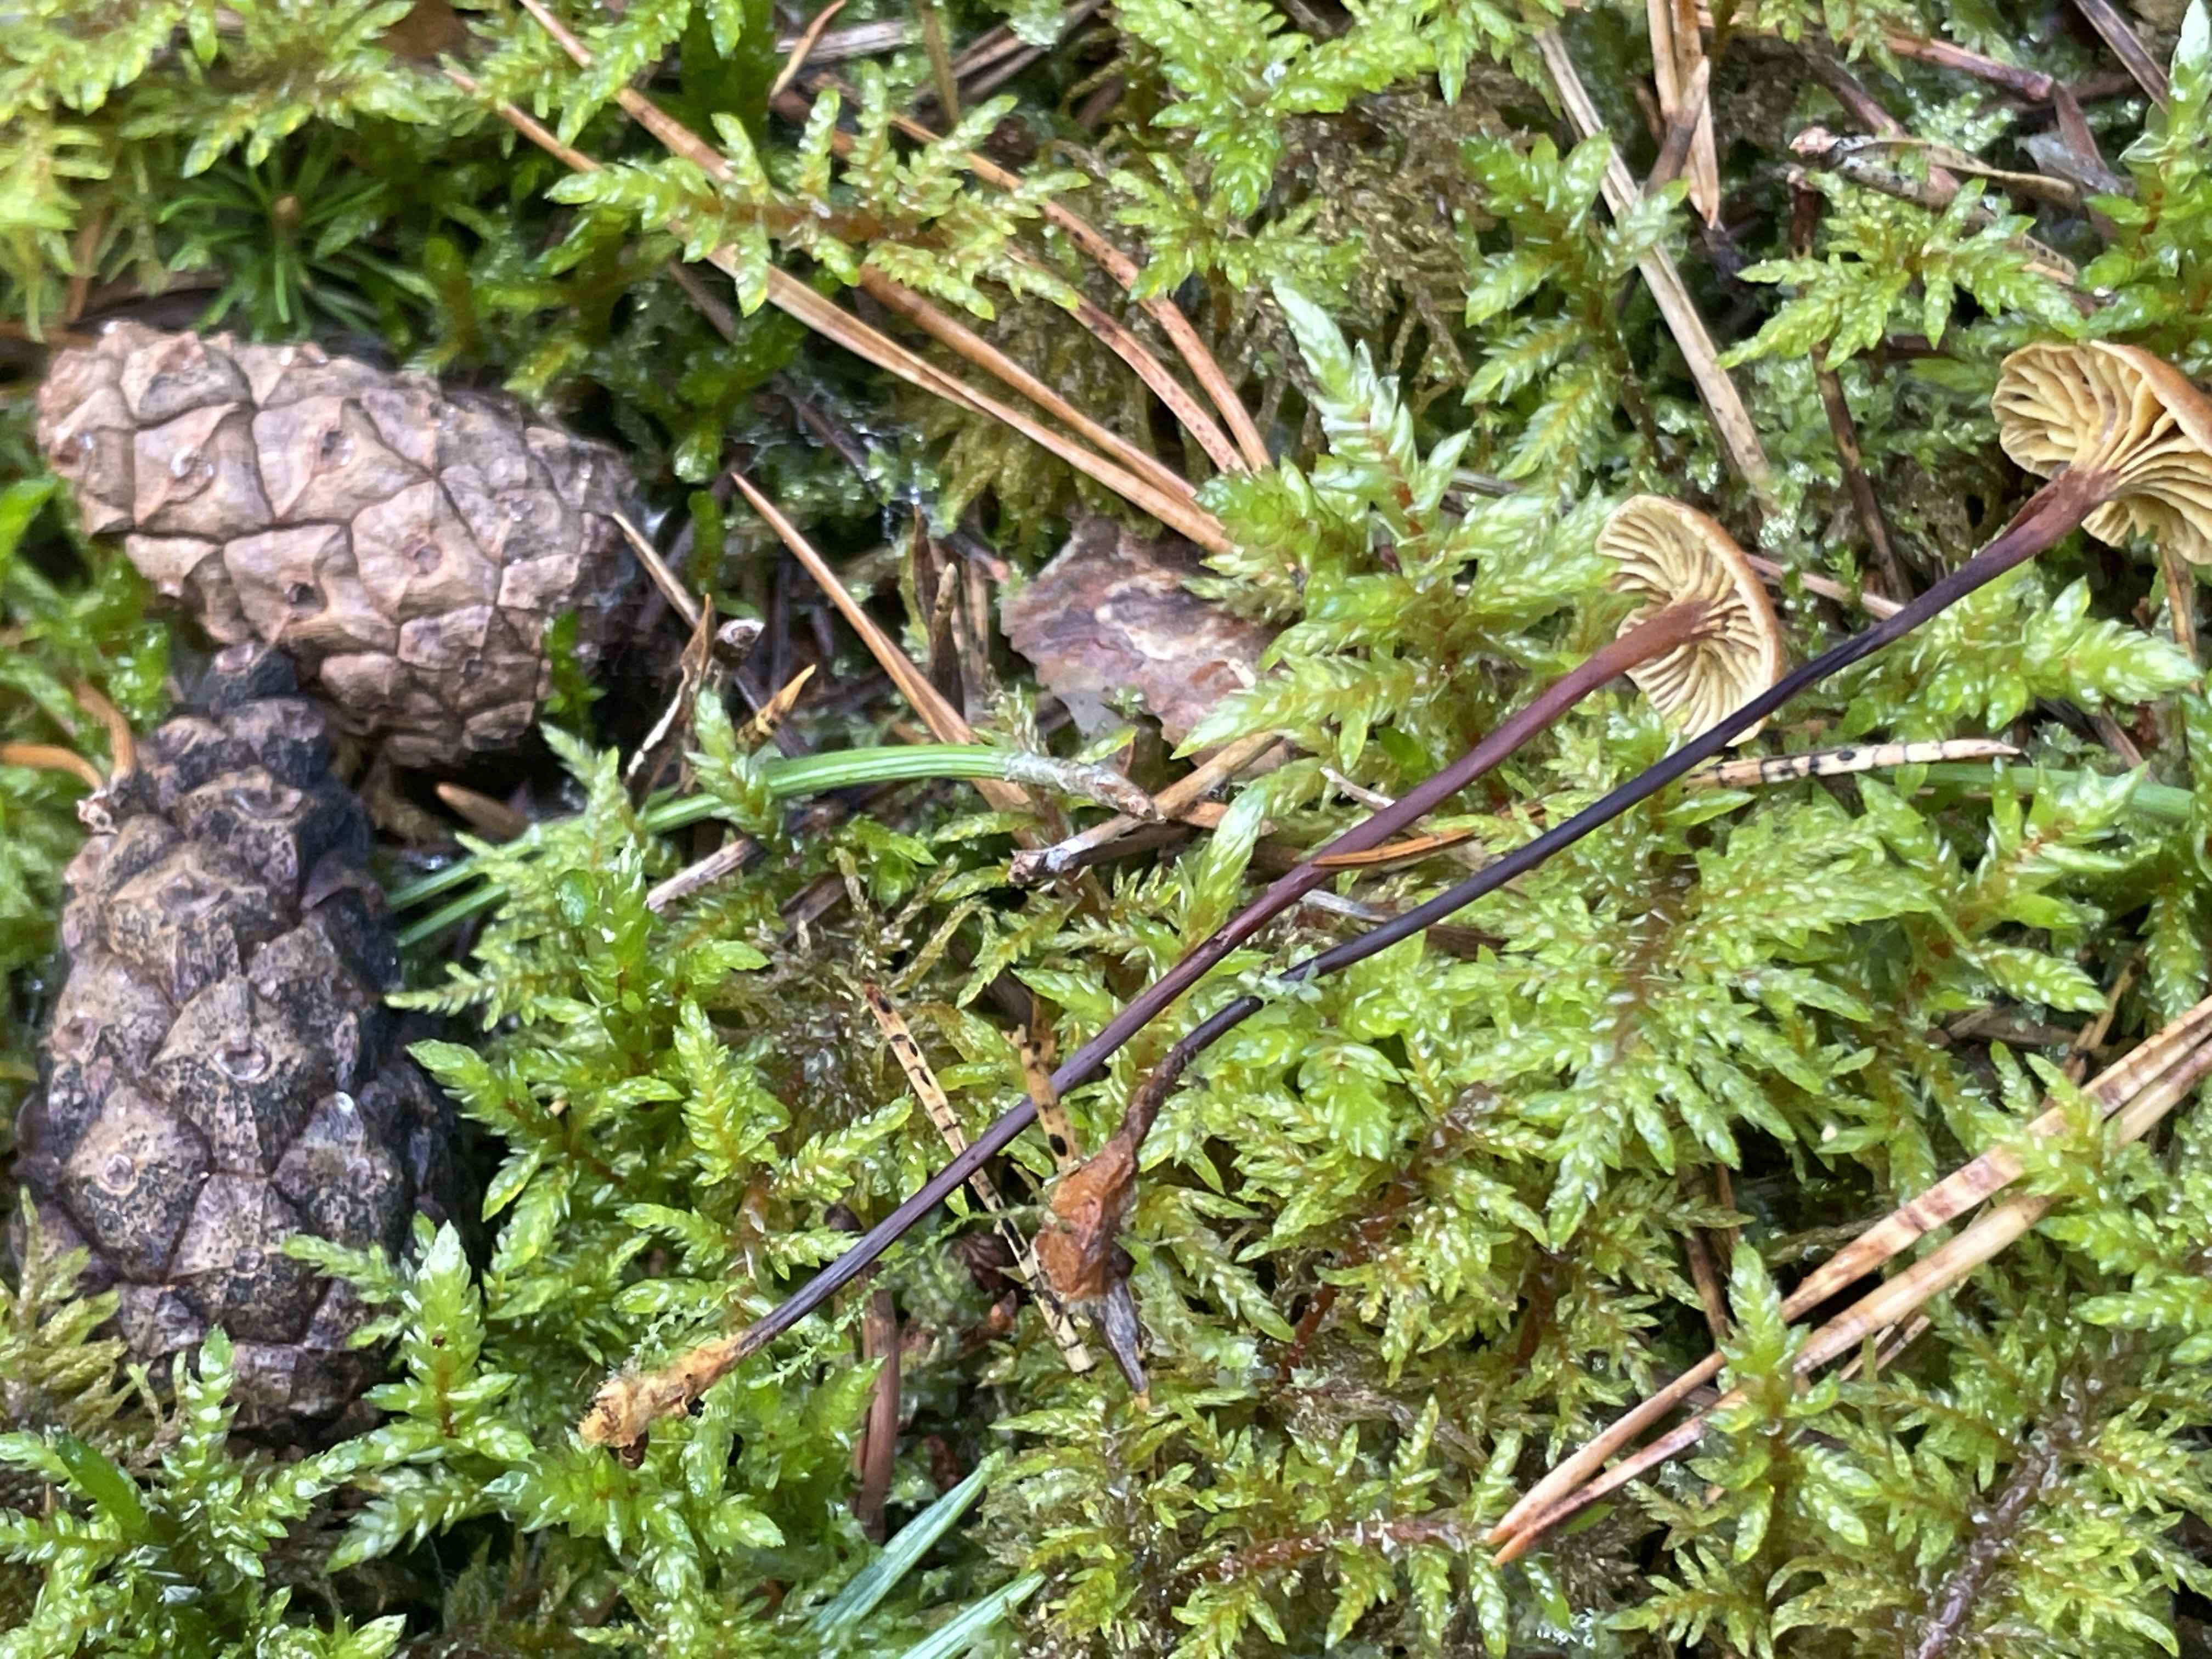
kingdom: Fungi
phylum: Basidiomycota
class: Agaricomycetes
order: Agaricales
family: Mycenaceae
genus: Xeromphalina
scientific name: Xeromphalina cauticinalis
